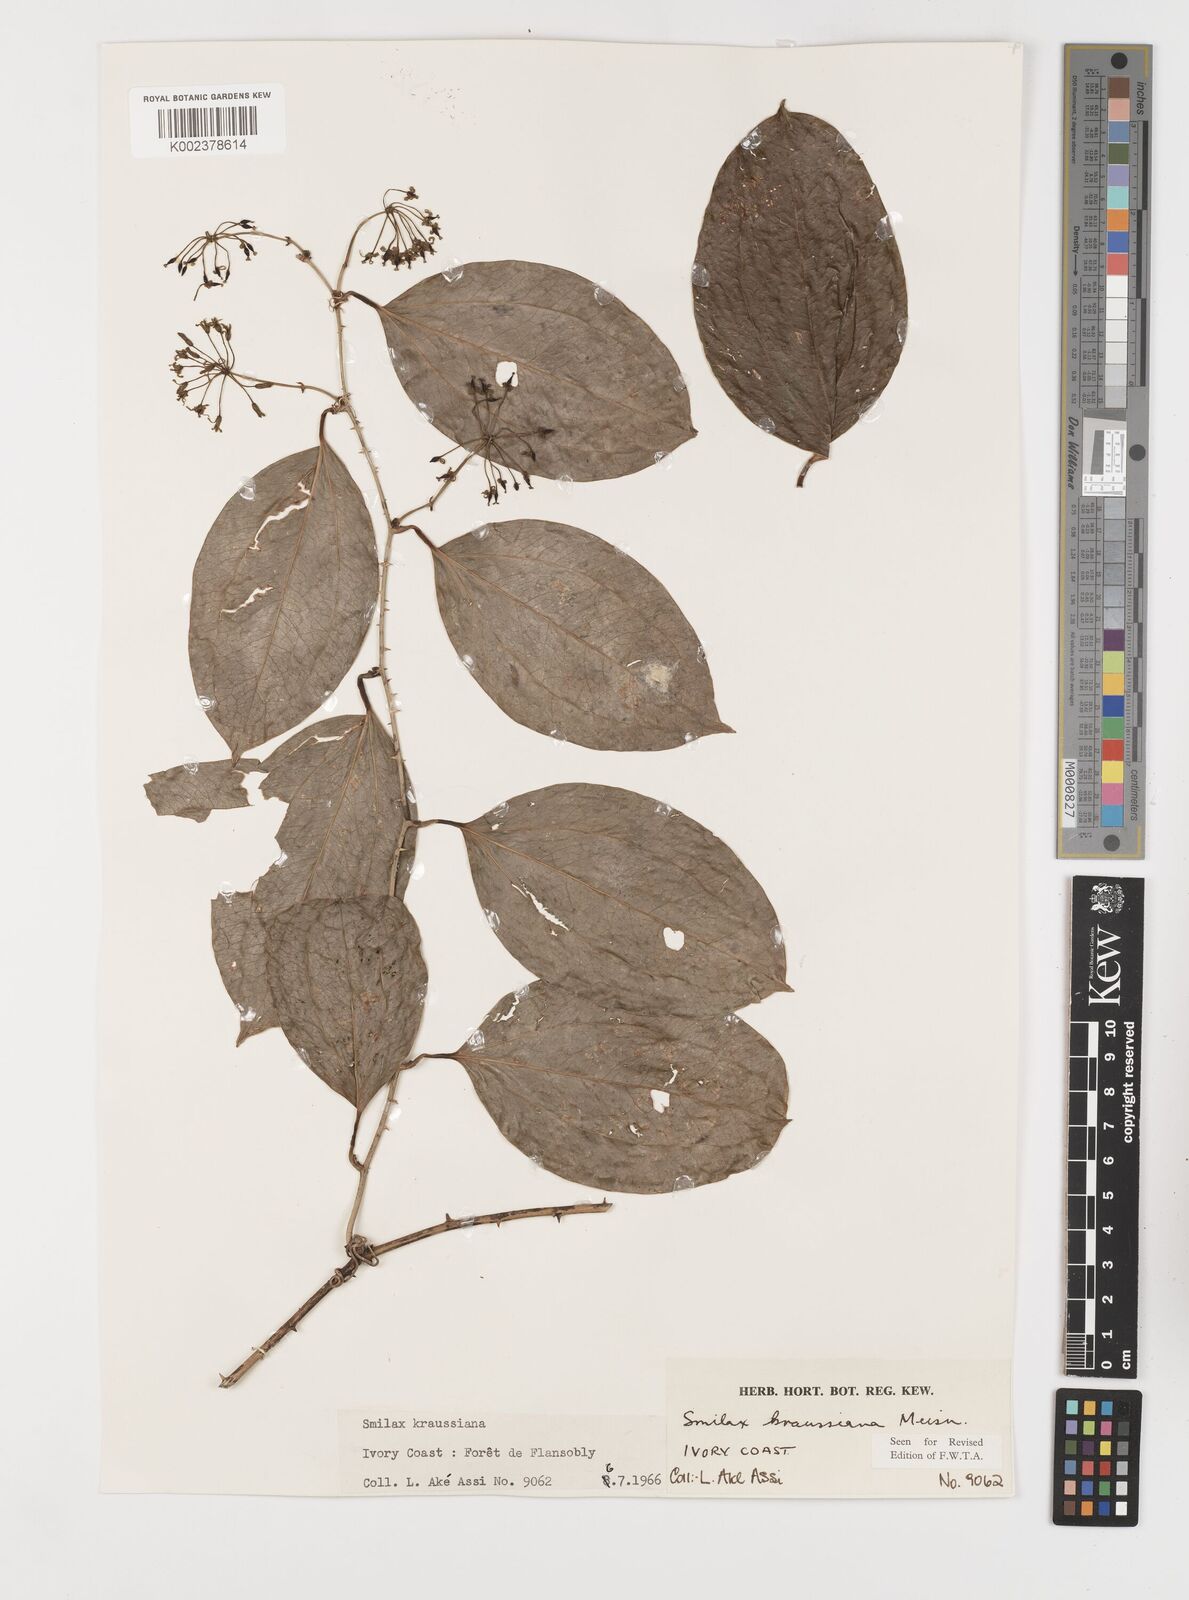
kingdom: Plantae
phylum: Tracheophyta
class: Liliopsida
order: Liliales
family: Smilacaceae
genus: Smilax
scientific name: Smilax anceps
